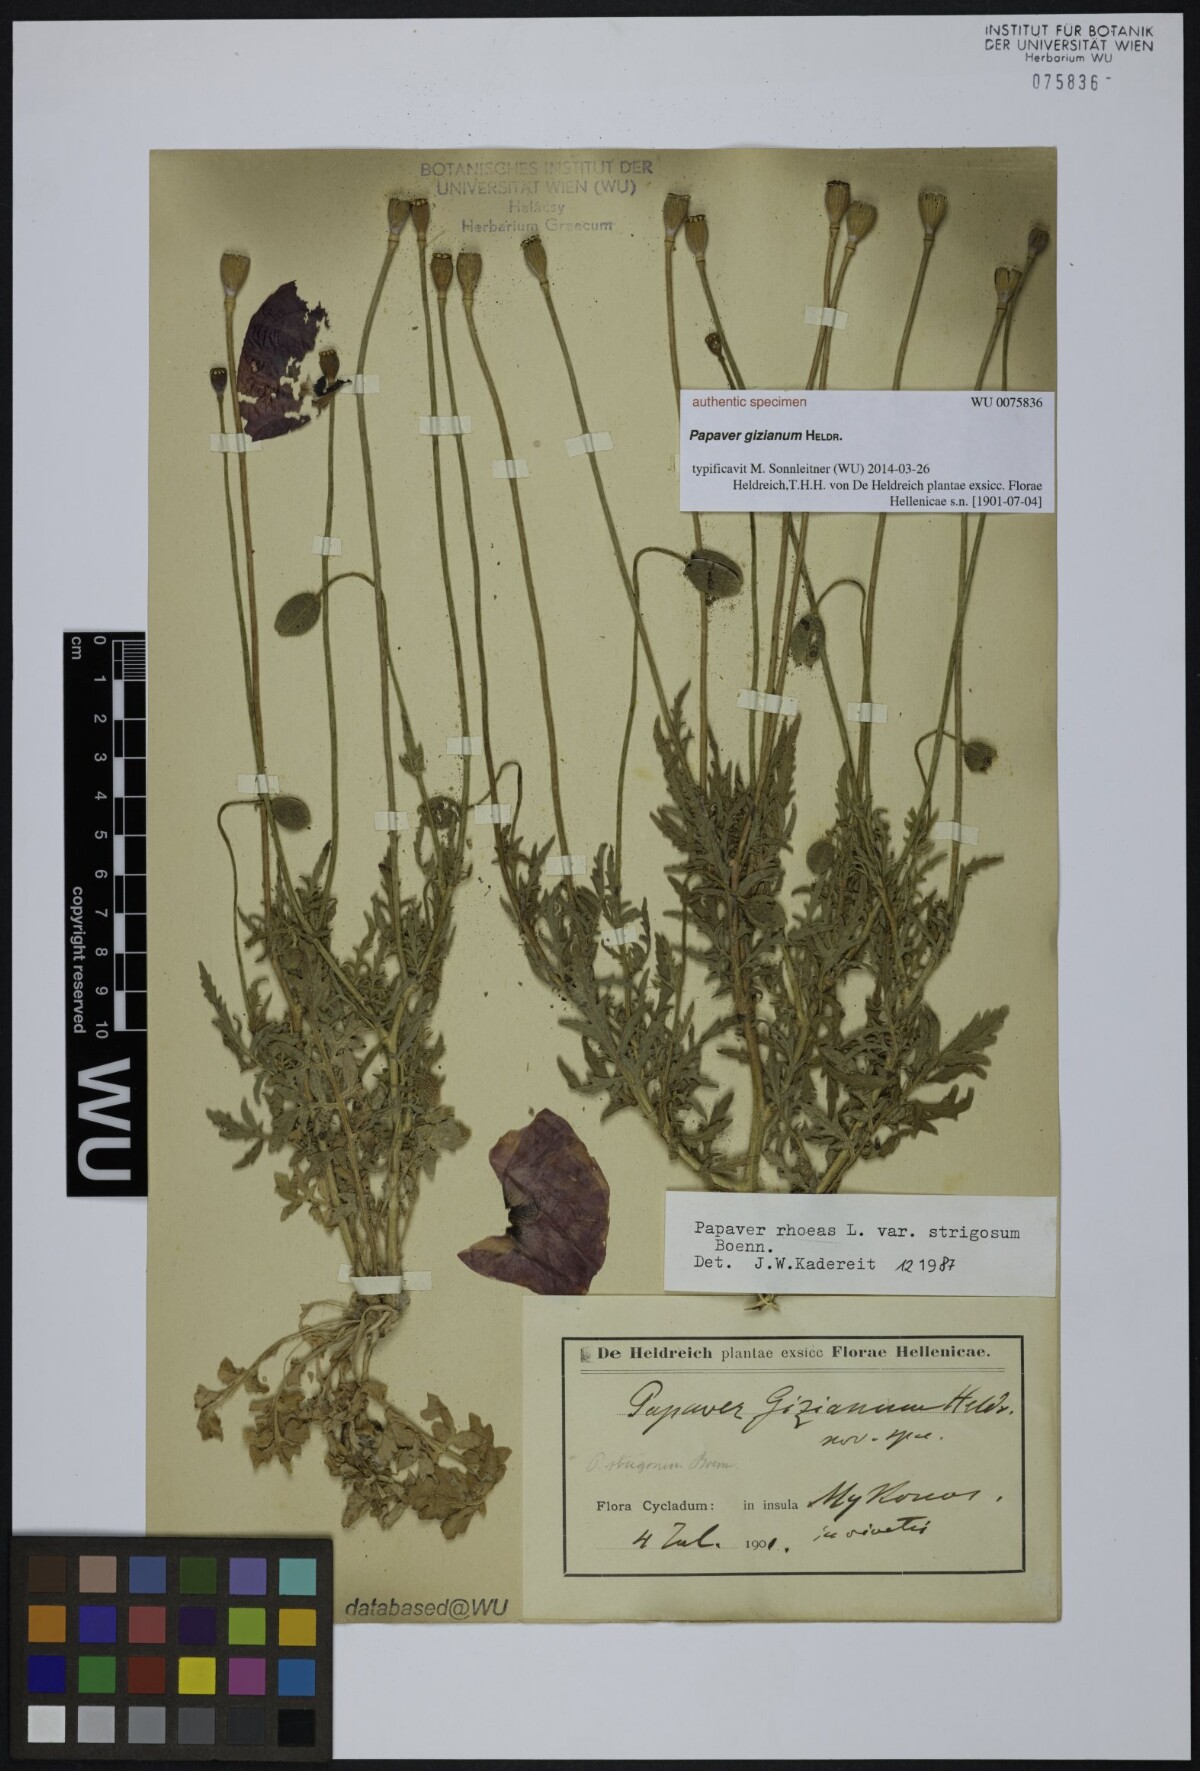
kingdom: Plantae
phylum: Tracheophyta
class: Magnoliopsida
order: Ranunculales
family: Papaveraceae
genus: Papaver
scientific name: Papaver
